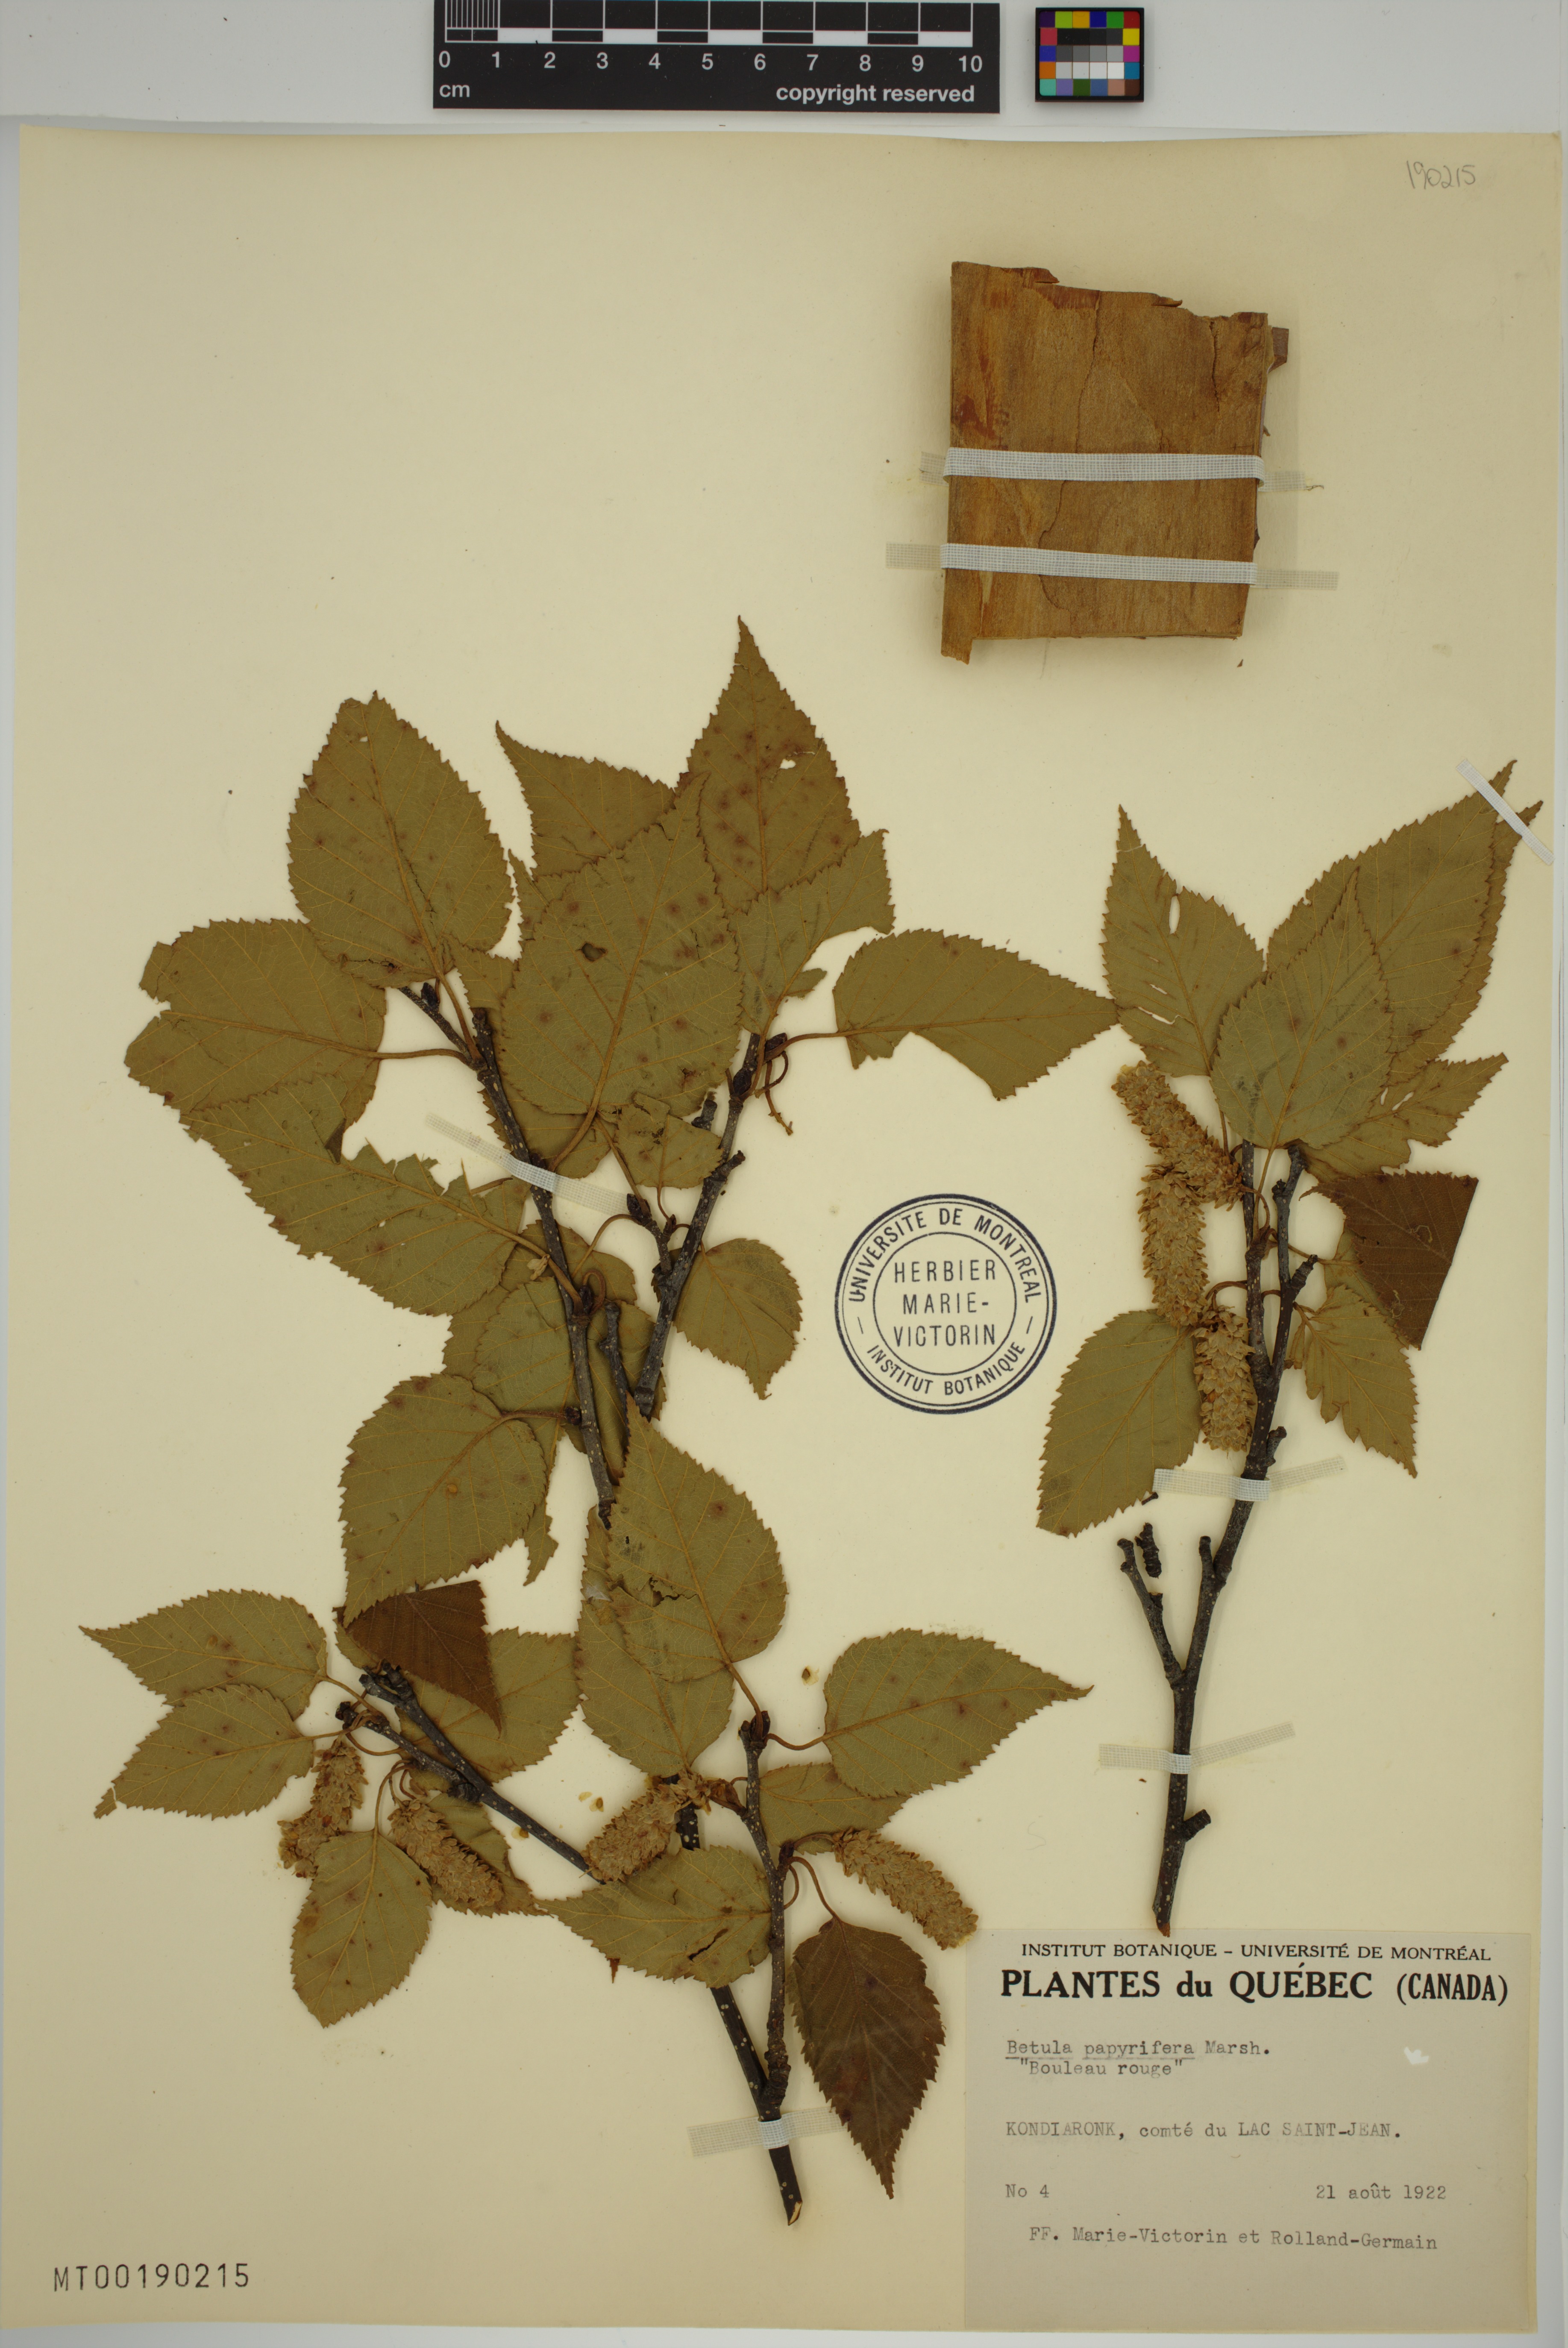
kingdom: Plantae
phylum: Tracheophyta
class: Magnoliopsida
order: Fagales
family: Betulaceae
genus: Betula
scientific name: Betula papyrifera
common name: Paper birch
